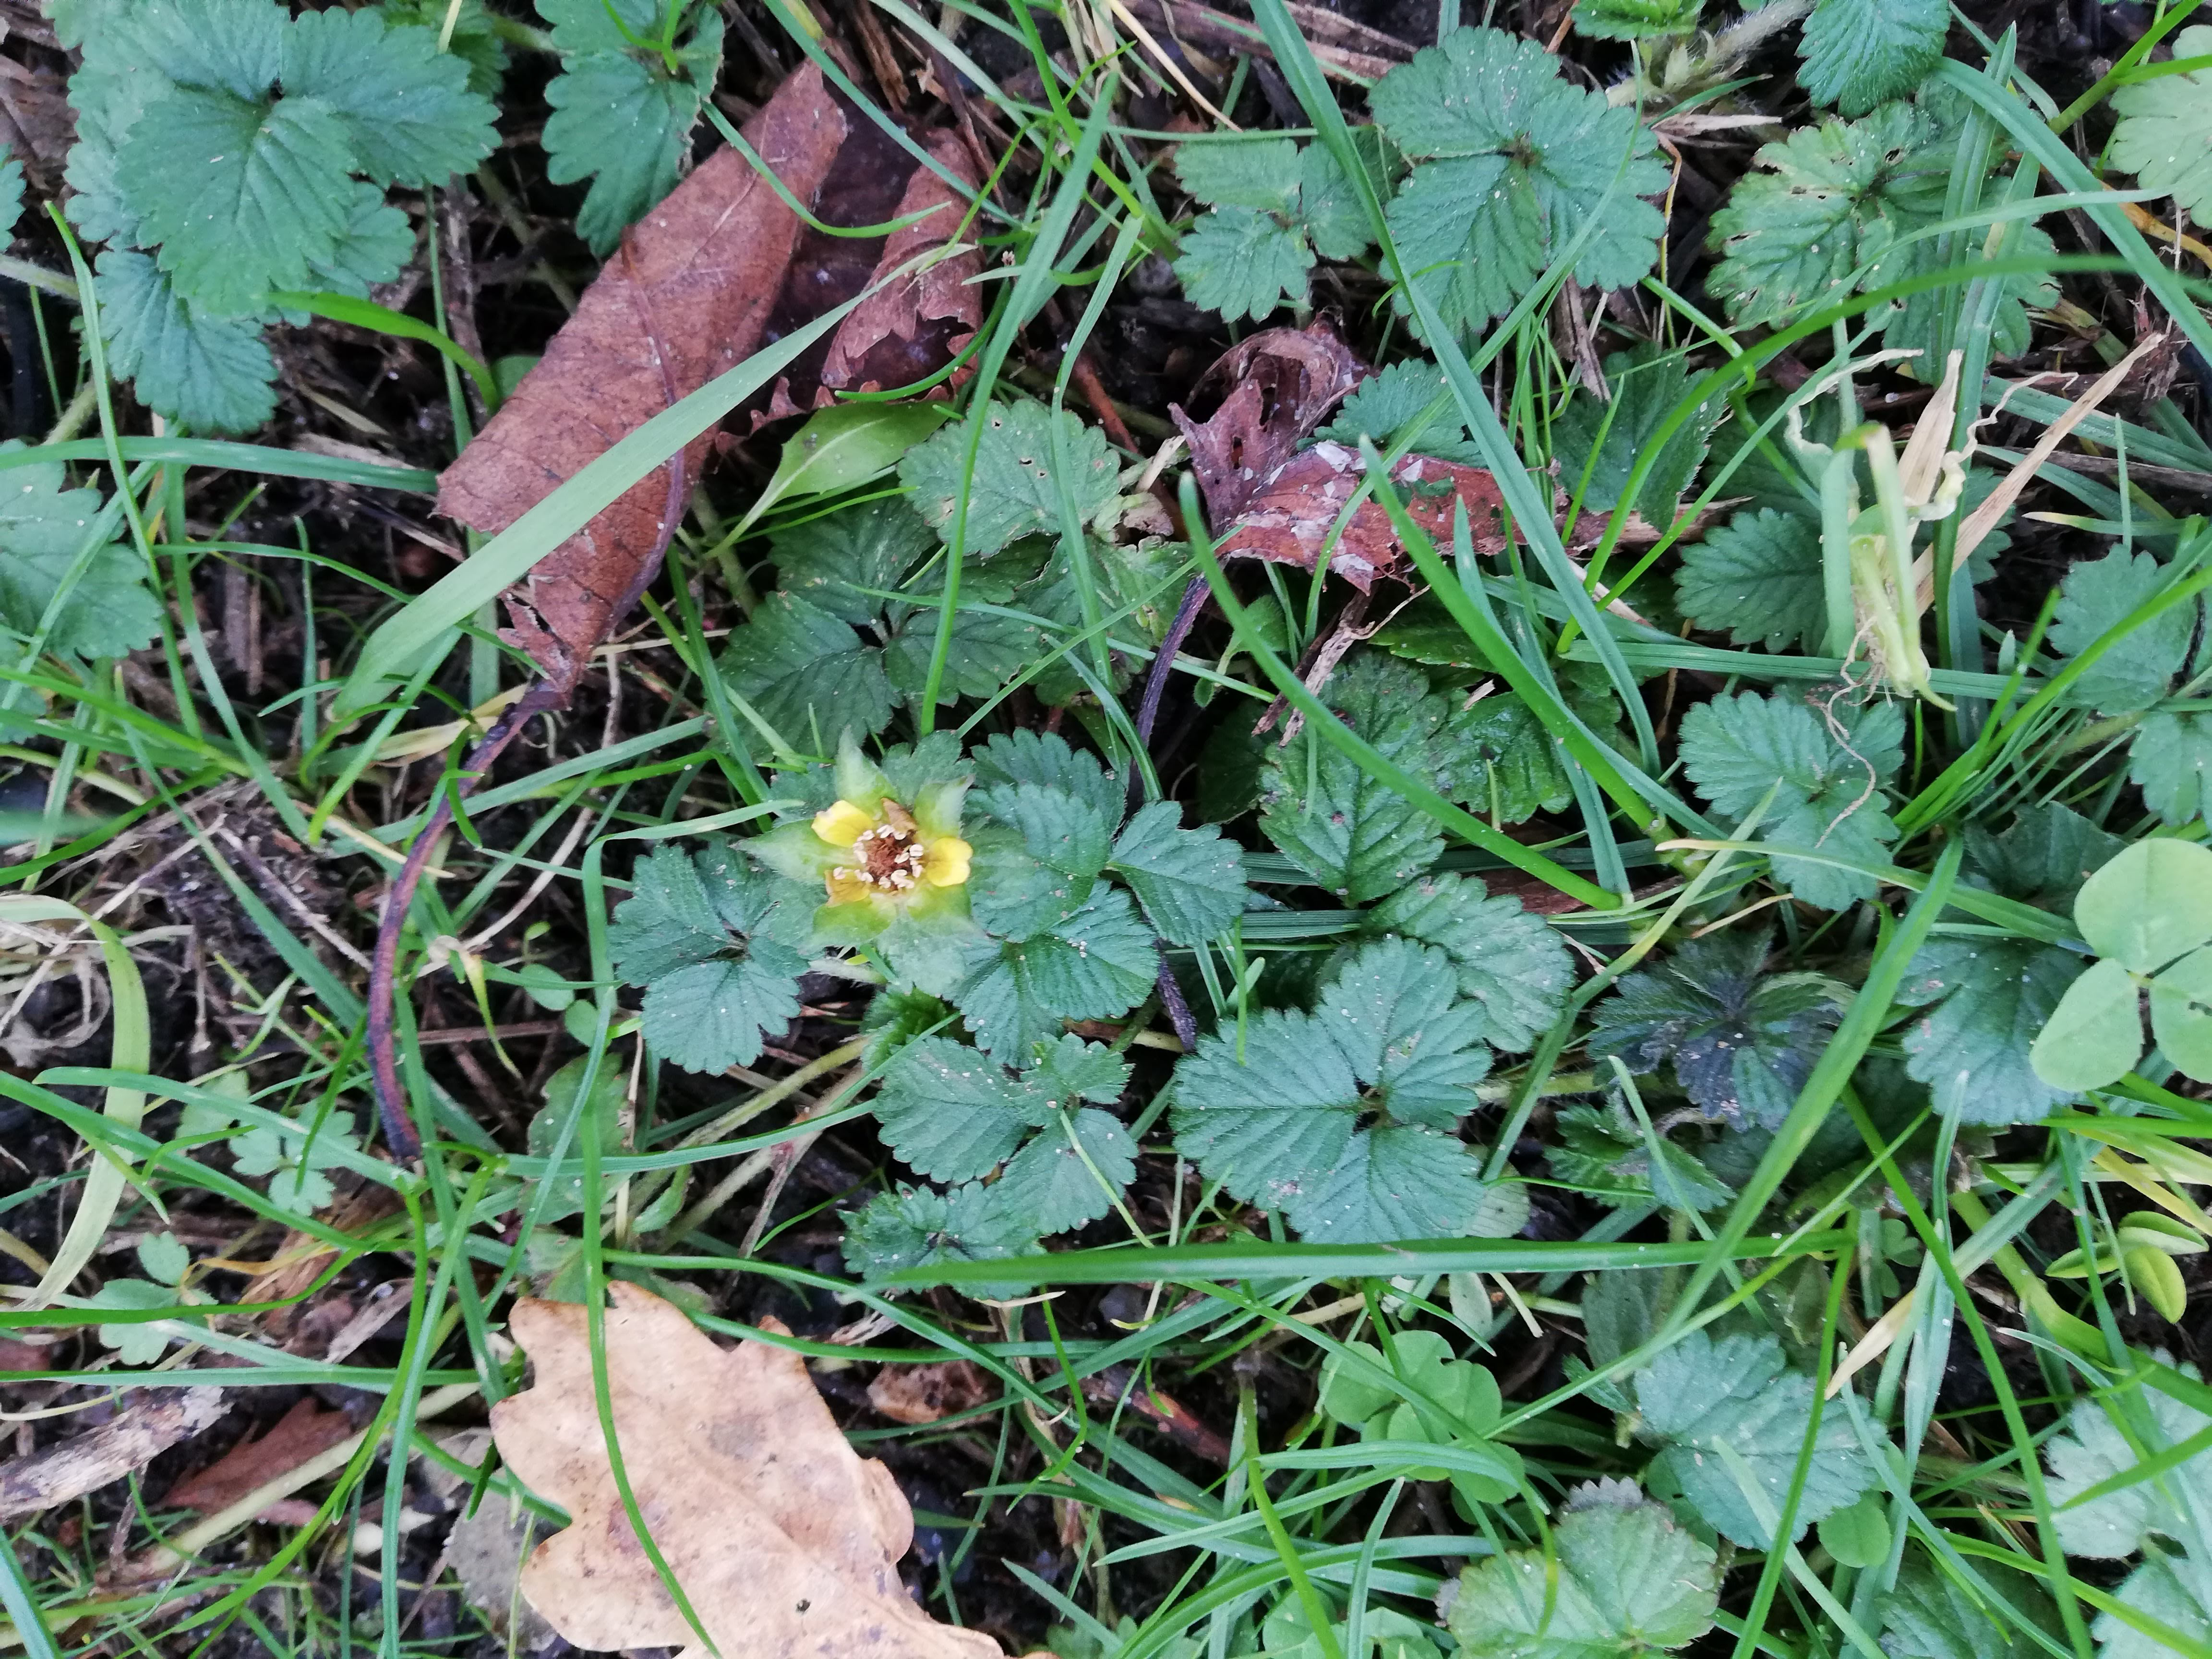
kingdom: Plantae
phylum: Tracheophyta
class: Magnoliopsida
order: Rosales
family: Rosaceae
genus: Potentilla
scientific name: Potentilla indica
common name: Indisk jordbær
